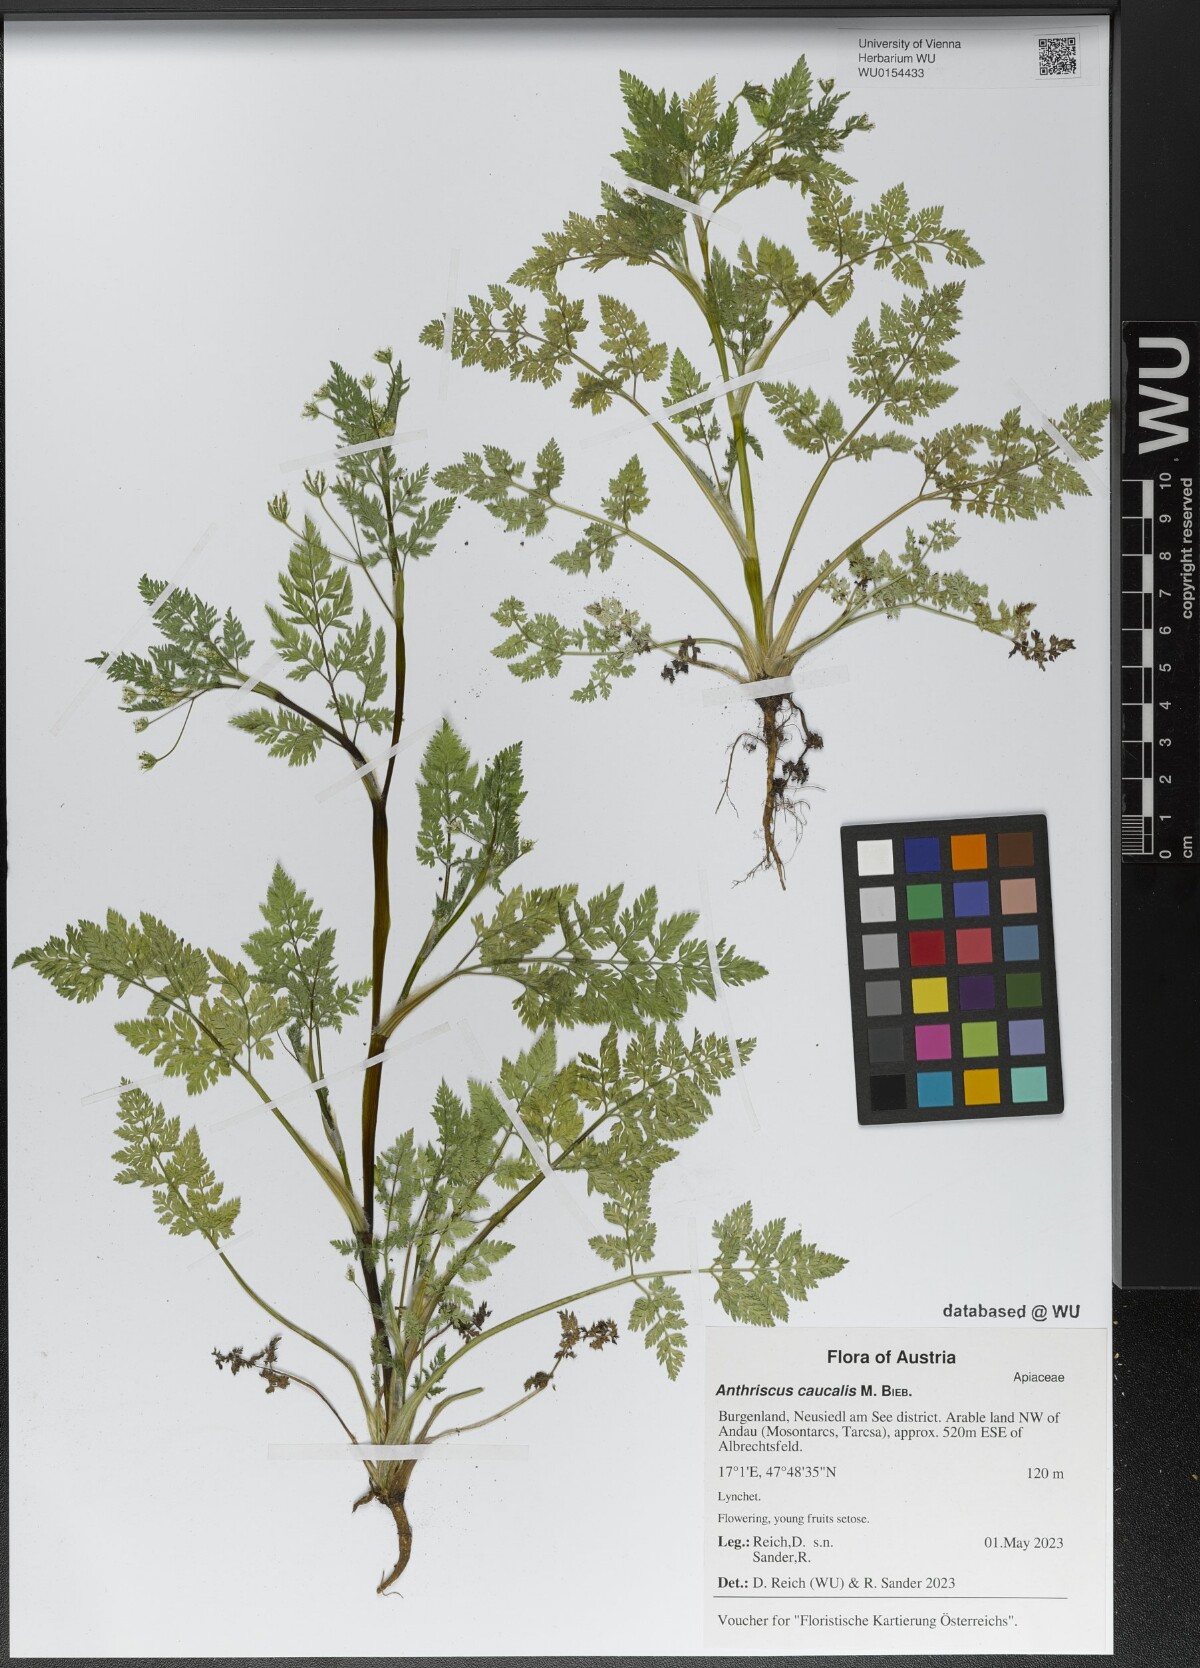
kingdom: Plantae
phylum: Tracheophyta
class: Magnoliopsida
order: Apiales
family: Apiaceae
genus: Anthriscus
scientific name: Anthriscus caucalis
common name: Bur chervil
